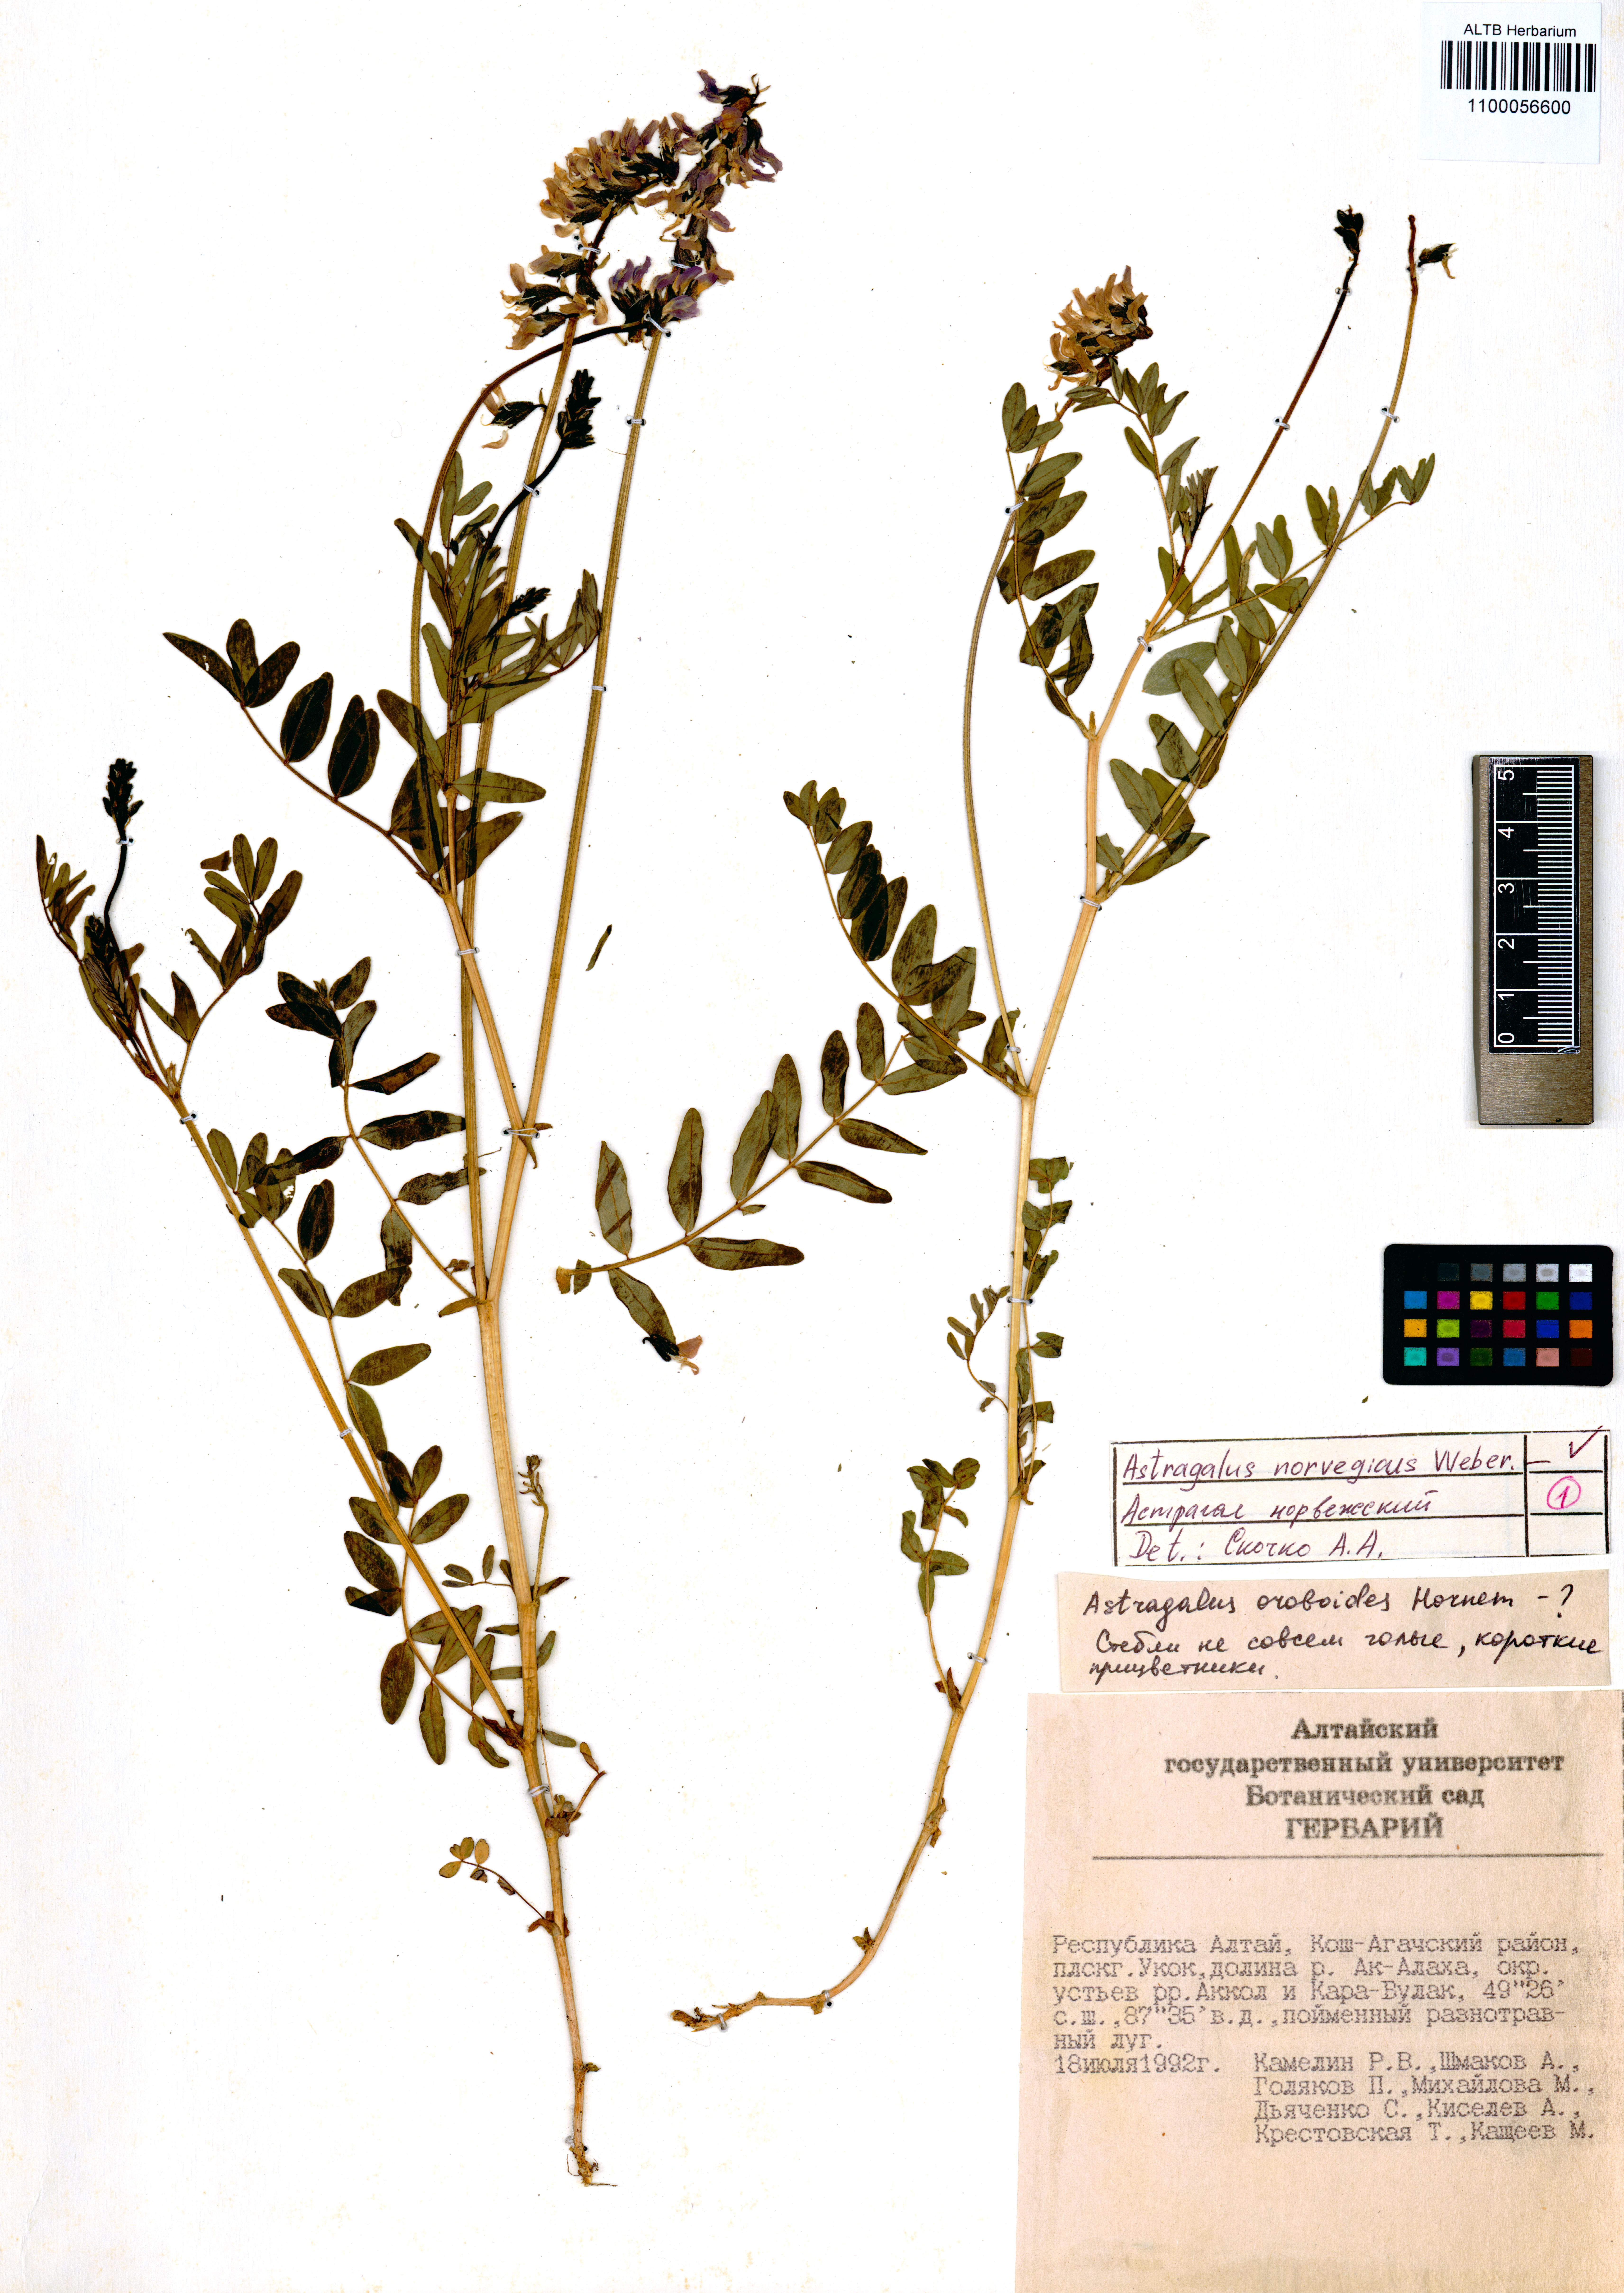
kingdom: Plantae
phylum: Tracheophyta
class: Magnoliopsida
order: Fabales
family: Fabaceae
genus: Astragalus
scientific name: Astragalus norvegicus
